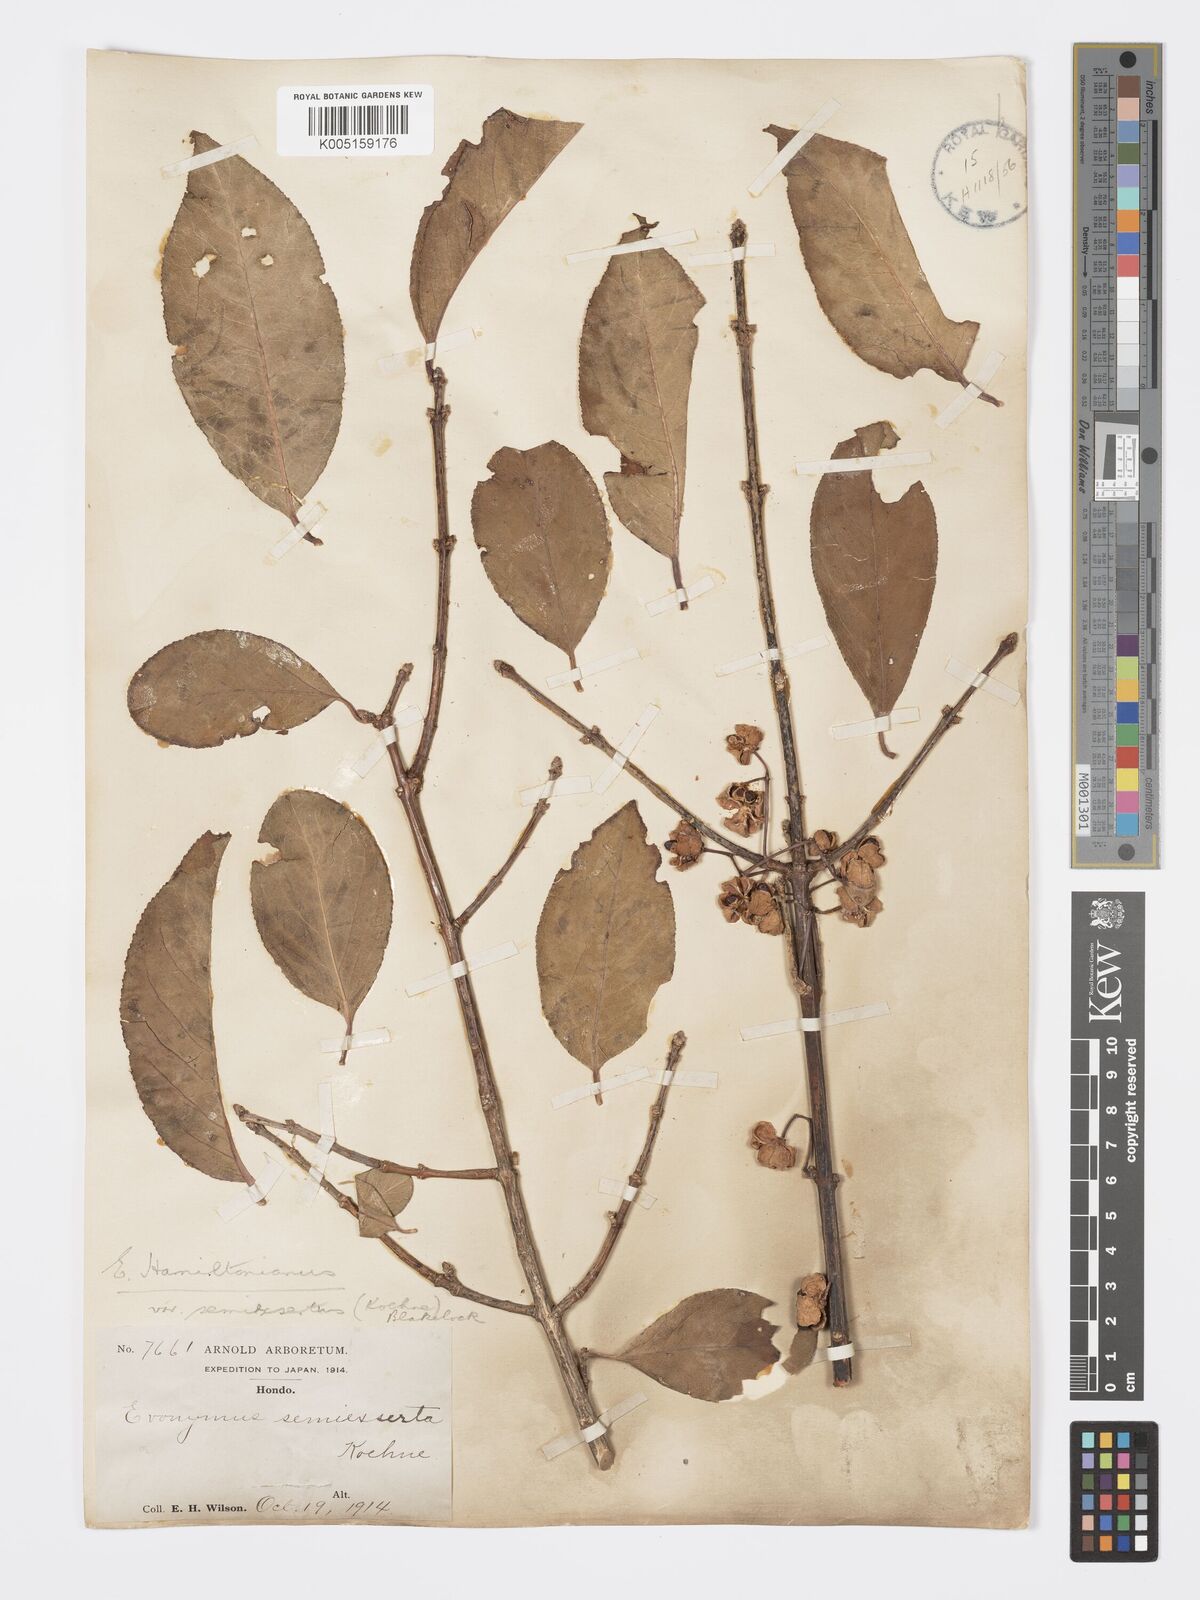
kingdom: Plantae
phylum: Tracheophyta
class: Magnoliopsida
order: Celastrales
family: Celastraceae
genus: Euonymus
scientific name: Euonymus hamiltonianus
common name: Hamilton's spindletree
